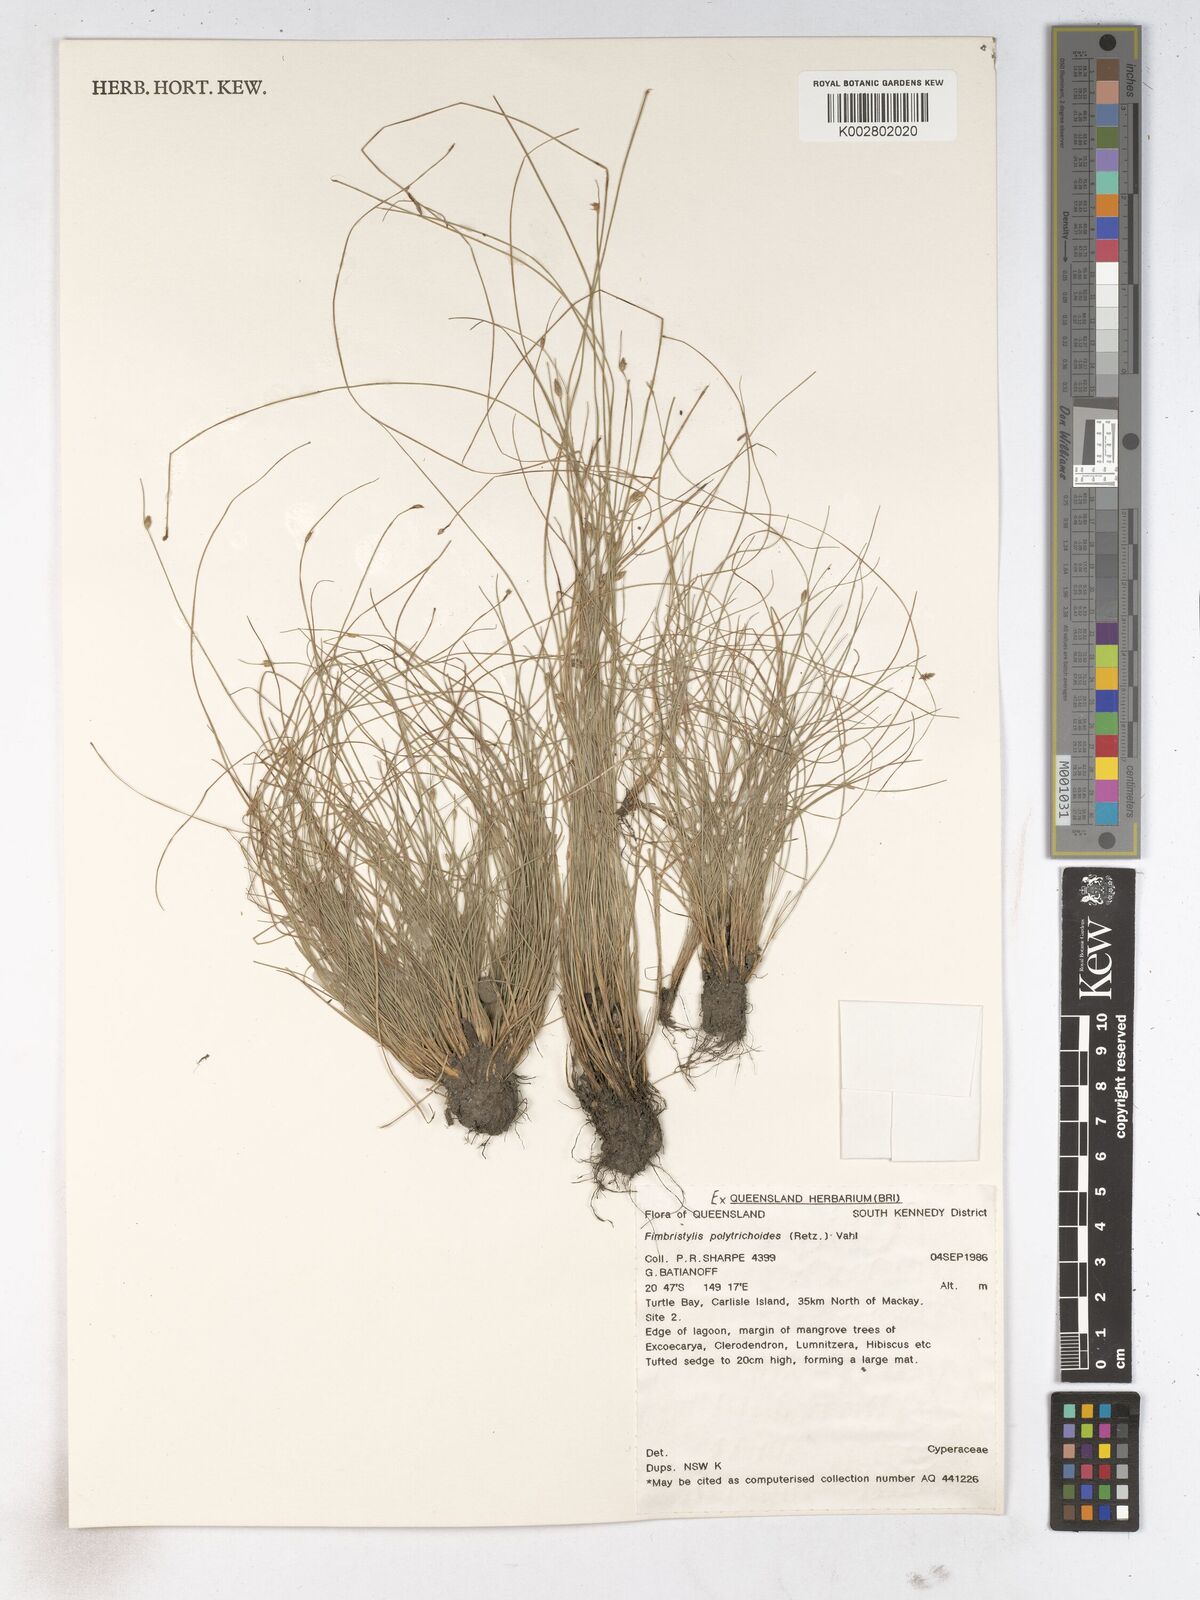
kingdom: Plantae
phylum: Tracheophyta
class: Liliopsida
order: Poales
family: Cyperaceae
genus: Fimbristylis
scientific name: Fimbristylis polytrichoides
